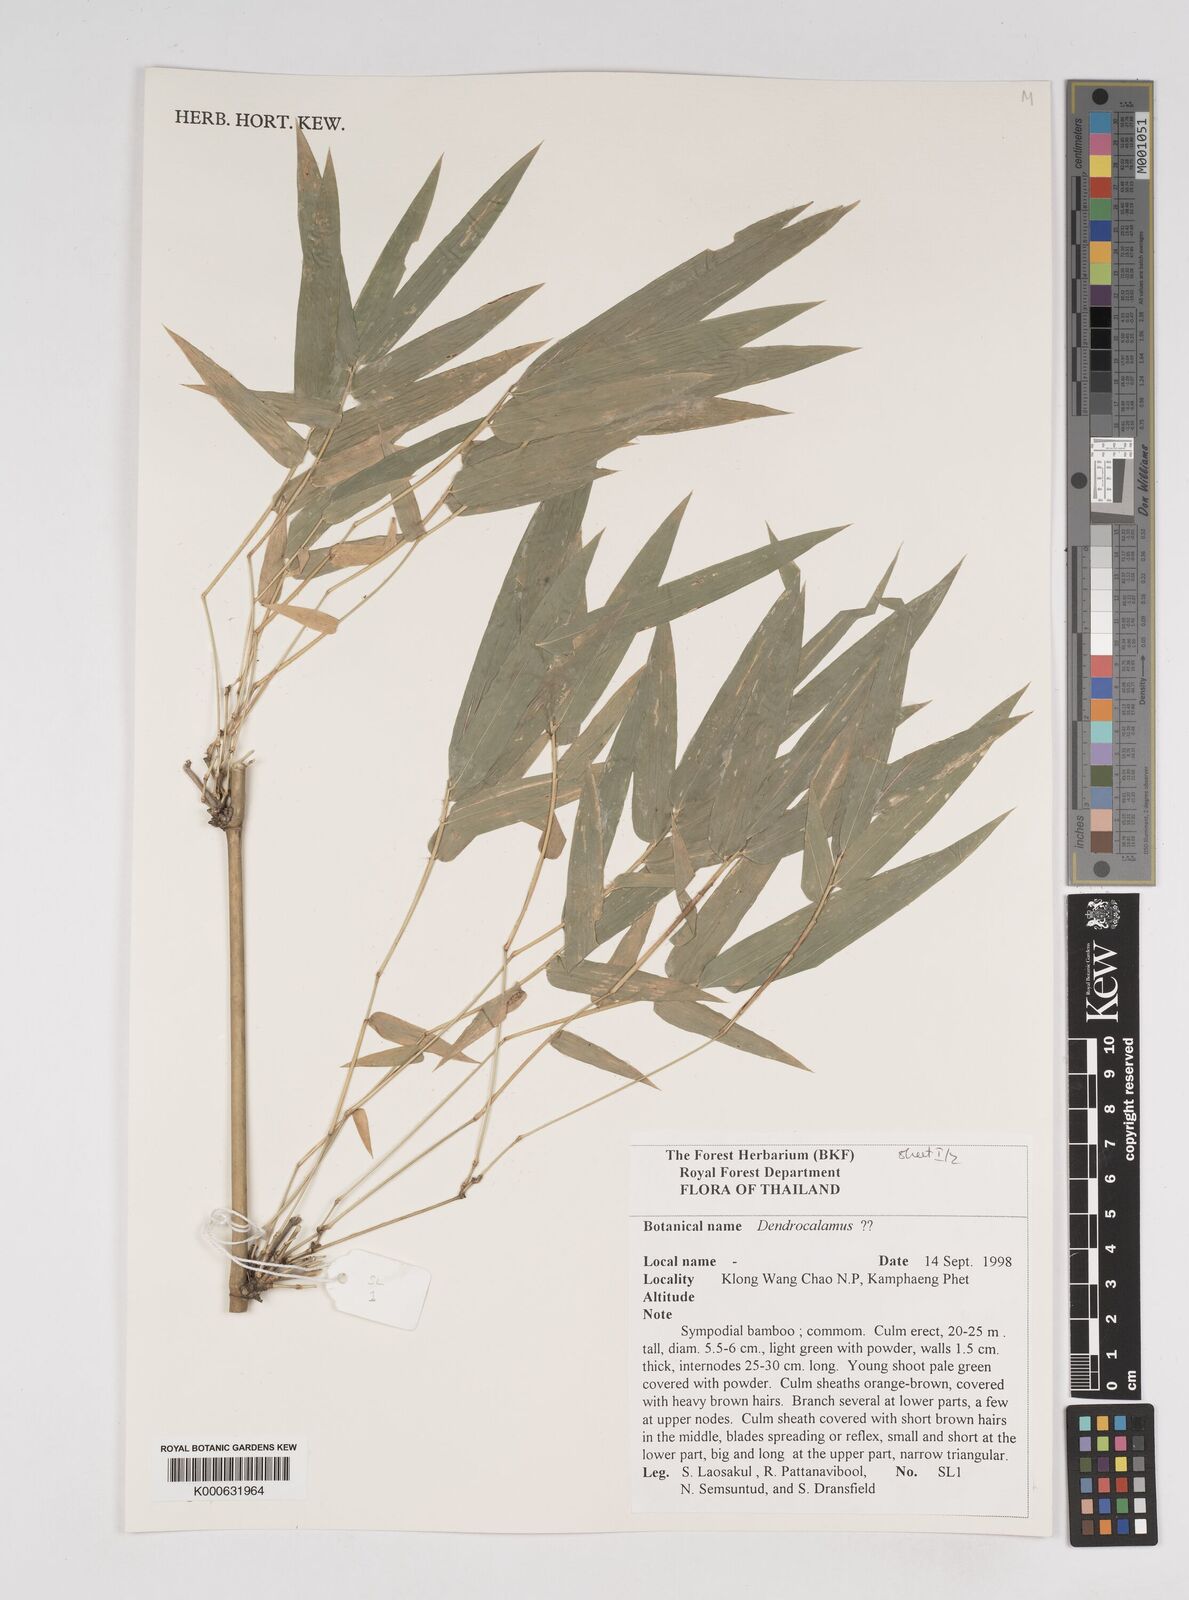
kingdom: Plantae
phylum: Tracheophyta
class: Liliopsida
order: Poales
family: Poaceae
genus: Dendrocalamus
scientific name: Dendrocalamus membranaceus
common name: White bamboo
